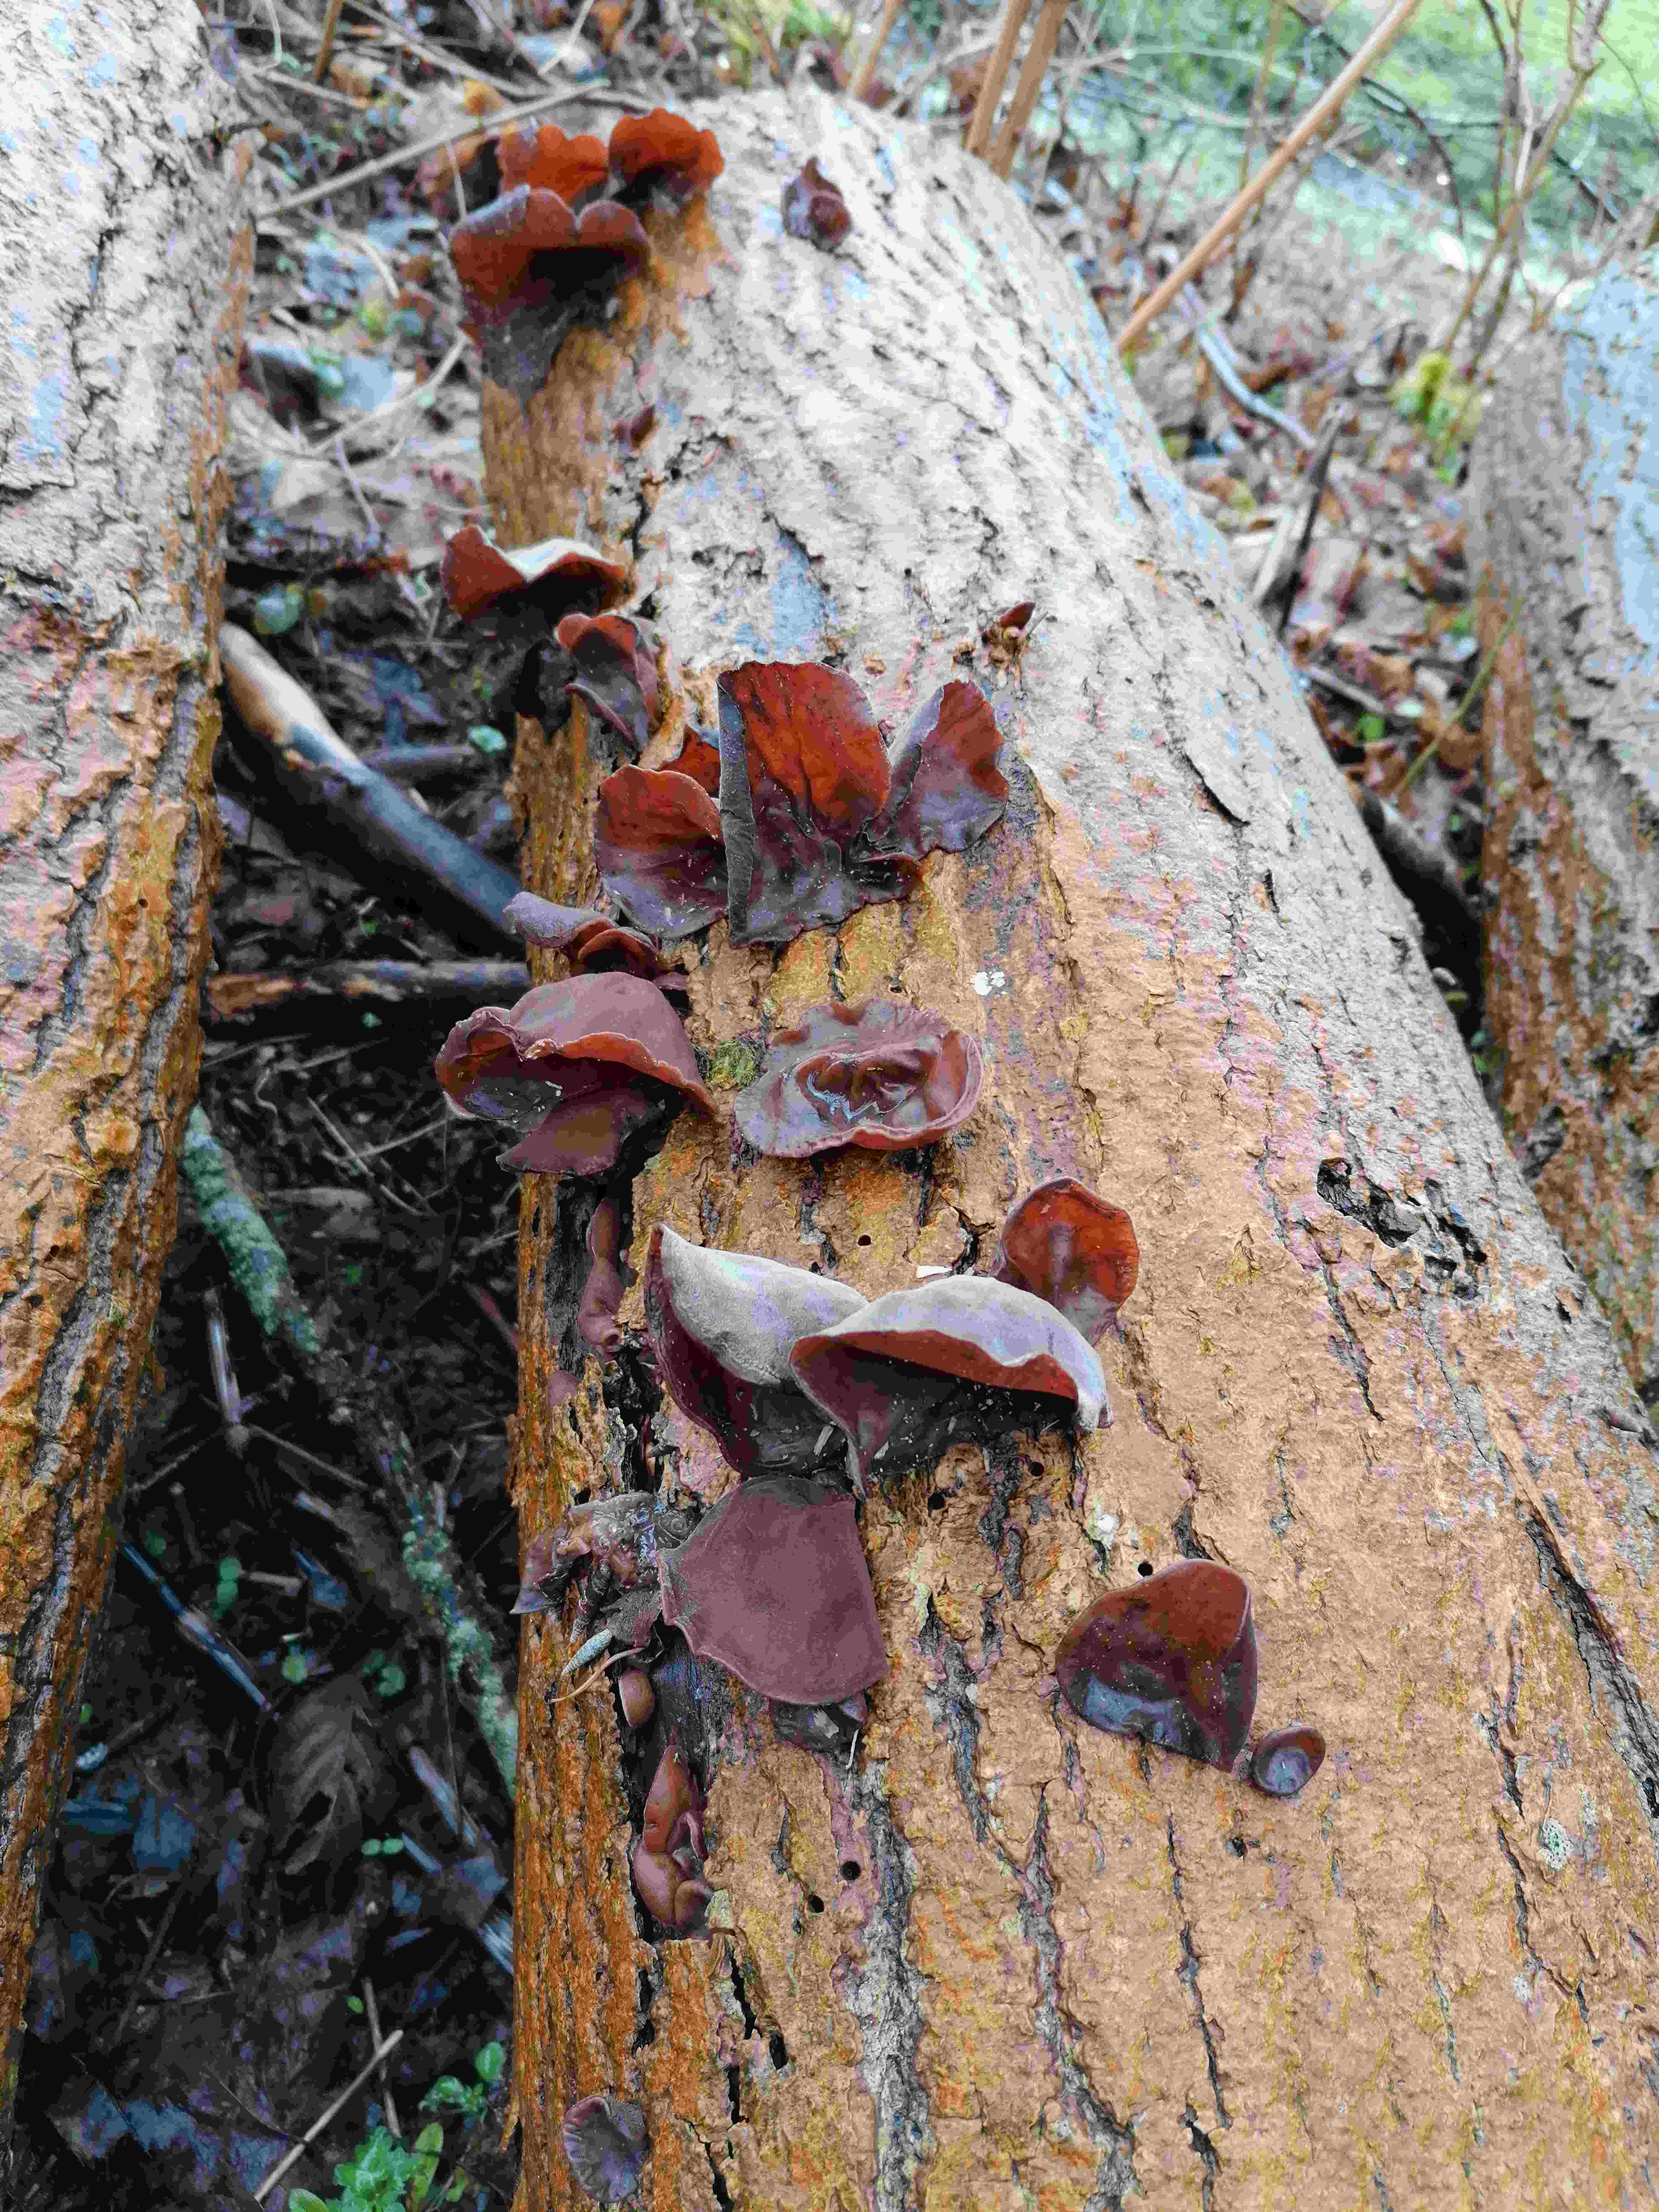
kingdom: Fungi
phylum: Basidiomycota
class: Agaricomycetes
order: Auriculariales
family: Auriculariaceae
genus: Auricularia
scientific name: Auricularia auricula-judae
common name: almindelig judasøre
